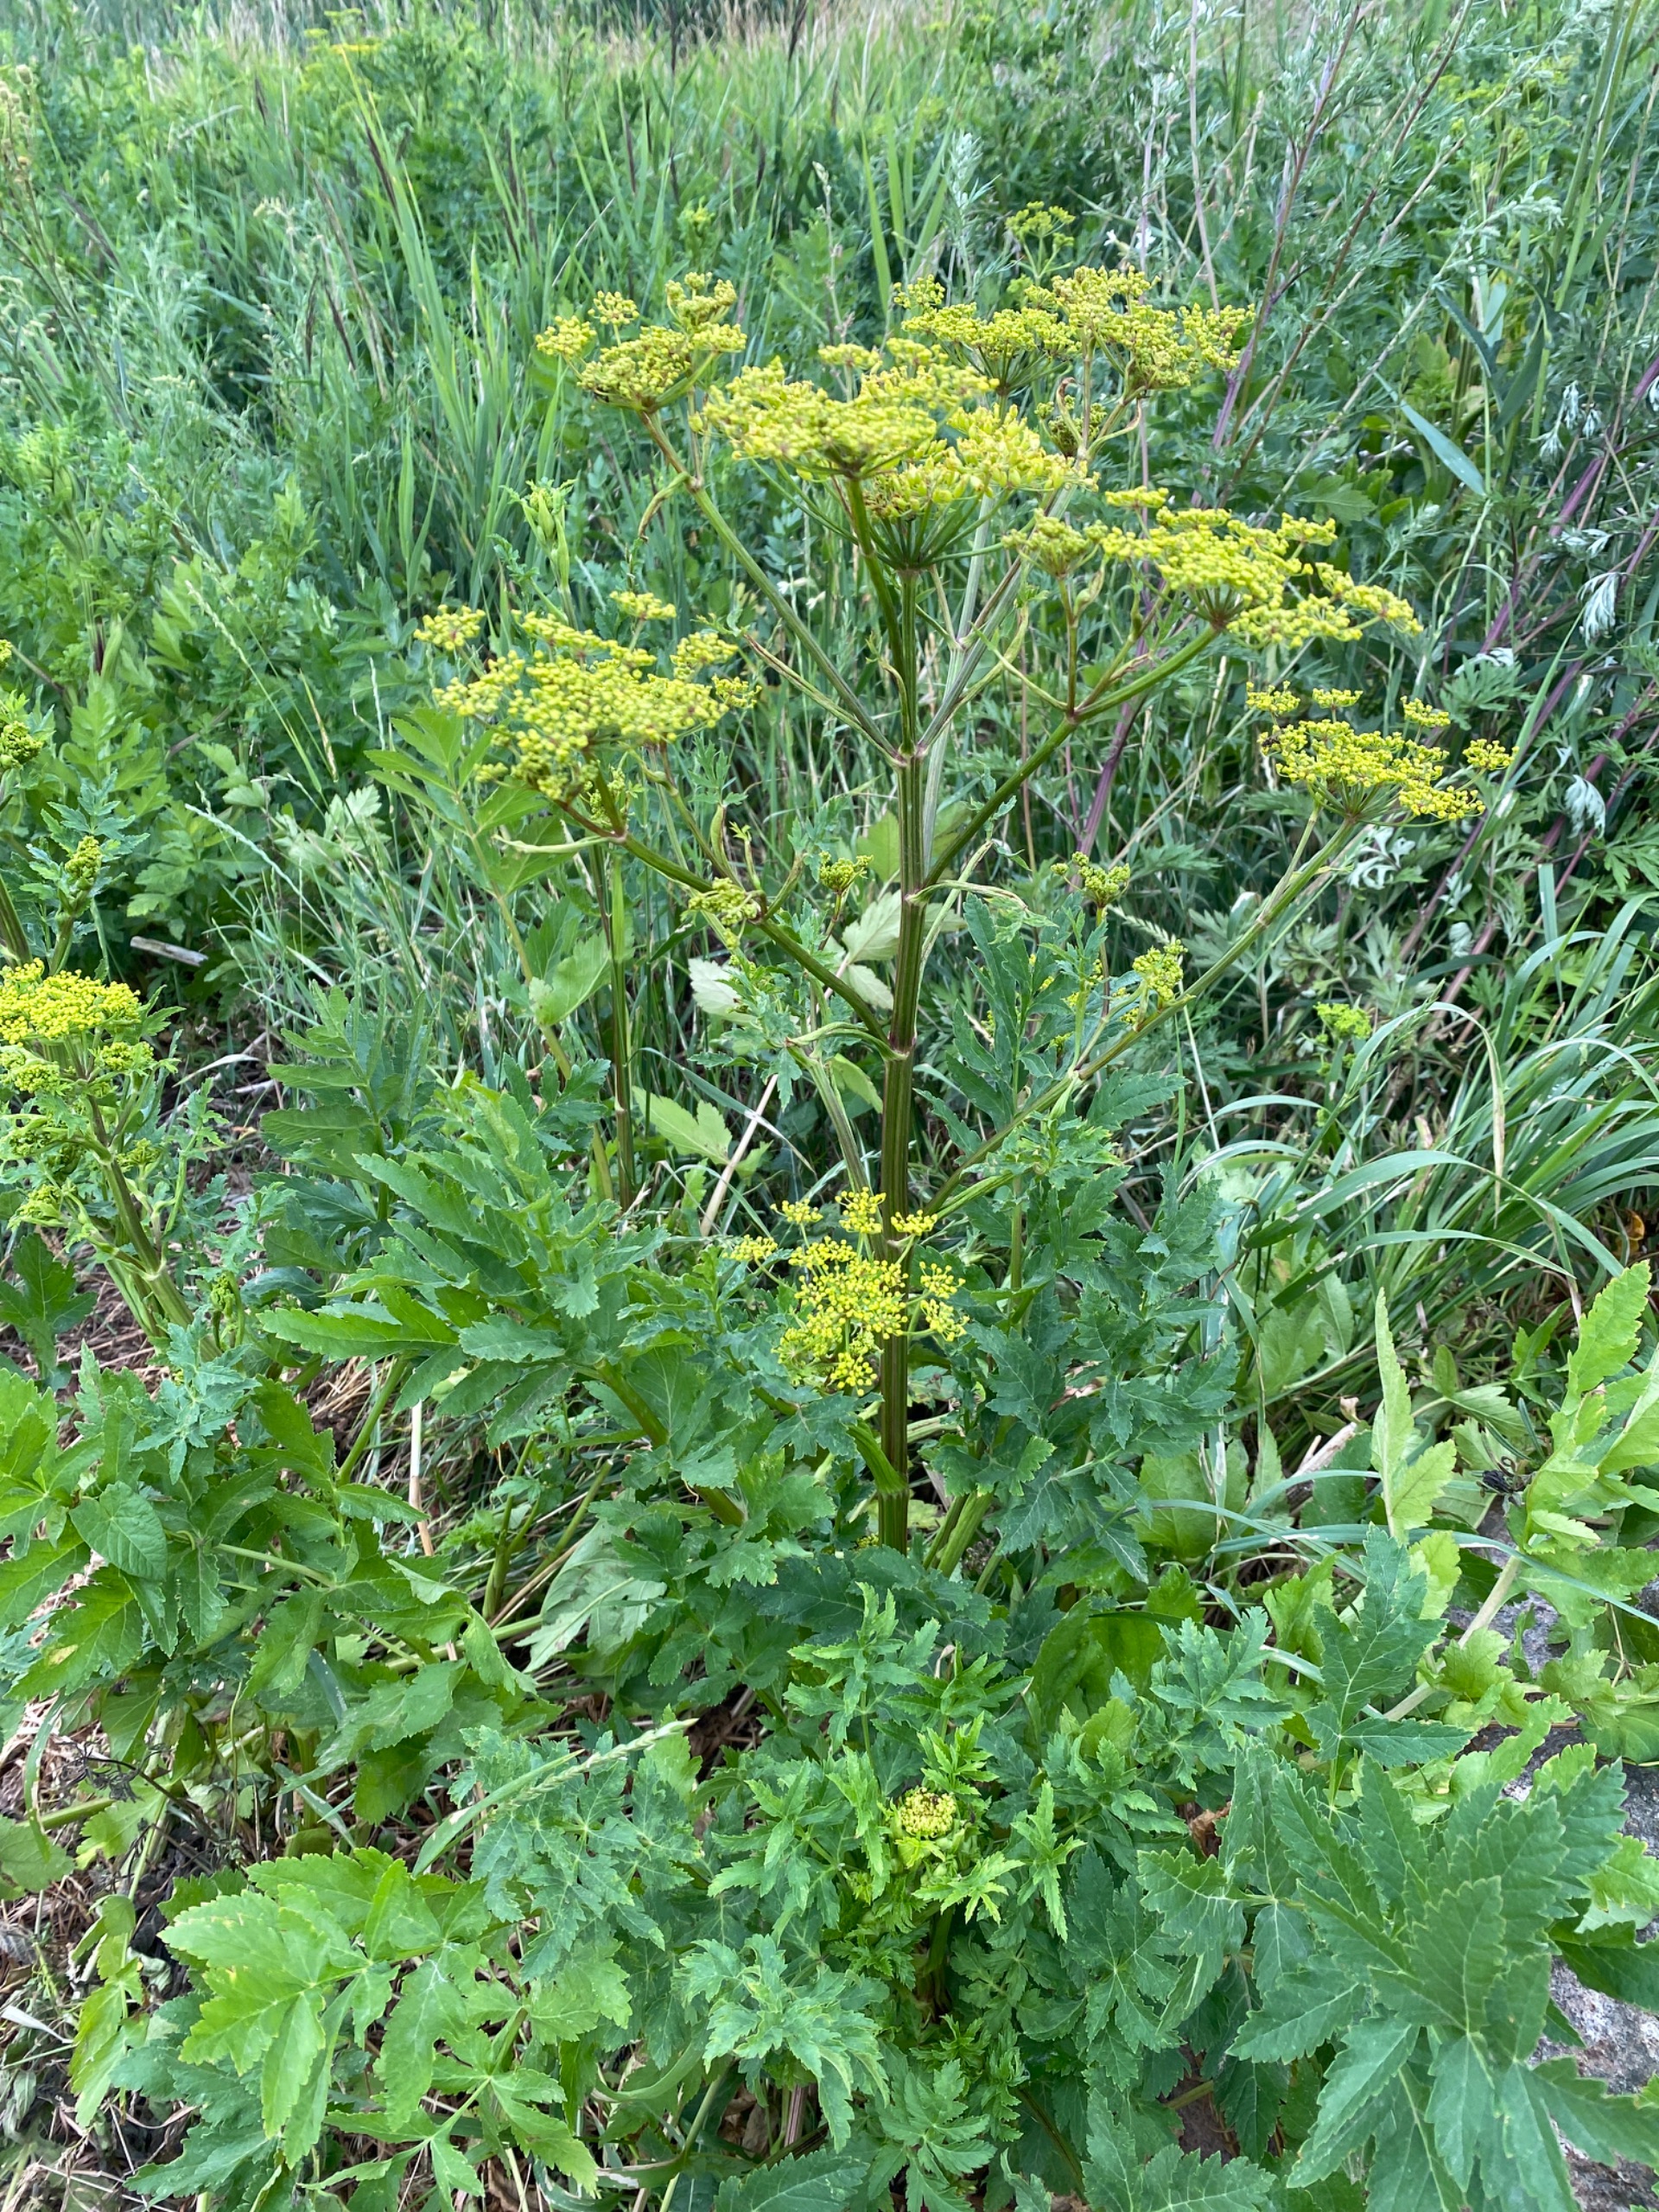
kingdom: Plantae
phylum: Tracheophyta
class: Magnoliopsida
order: Apiales
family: Apiaceae
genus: Pastinaca
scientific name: Pastinaca sativa
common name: Pastinak
